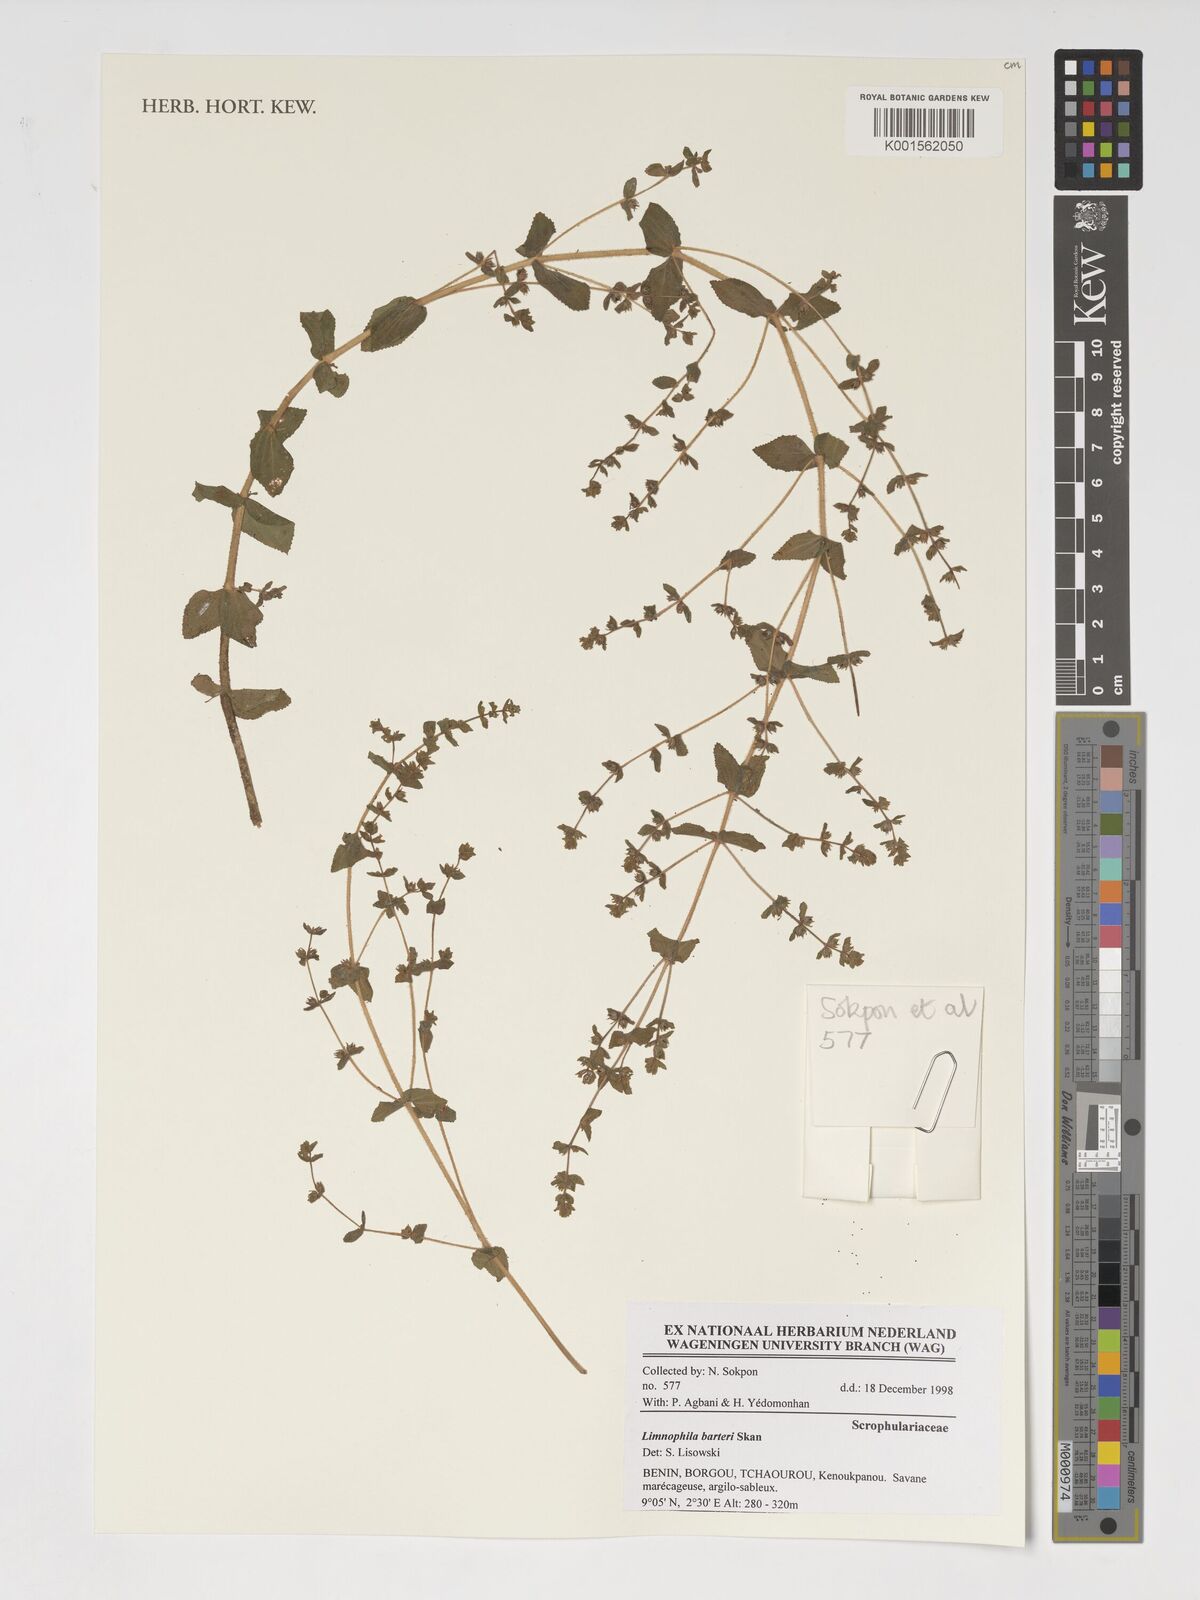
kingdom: Plantae
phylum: Tracheophyta
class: Magnoliopsida
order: Lamiales
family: Plantaginaceae
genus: Limnophila
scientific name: Limnophila barteri
